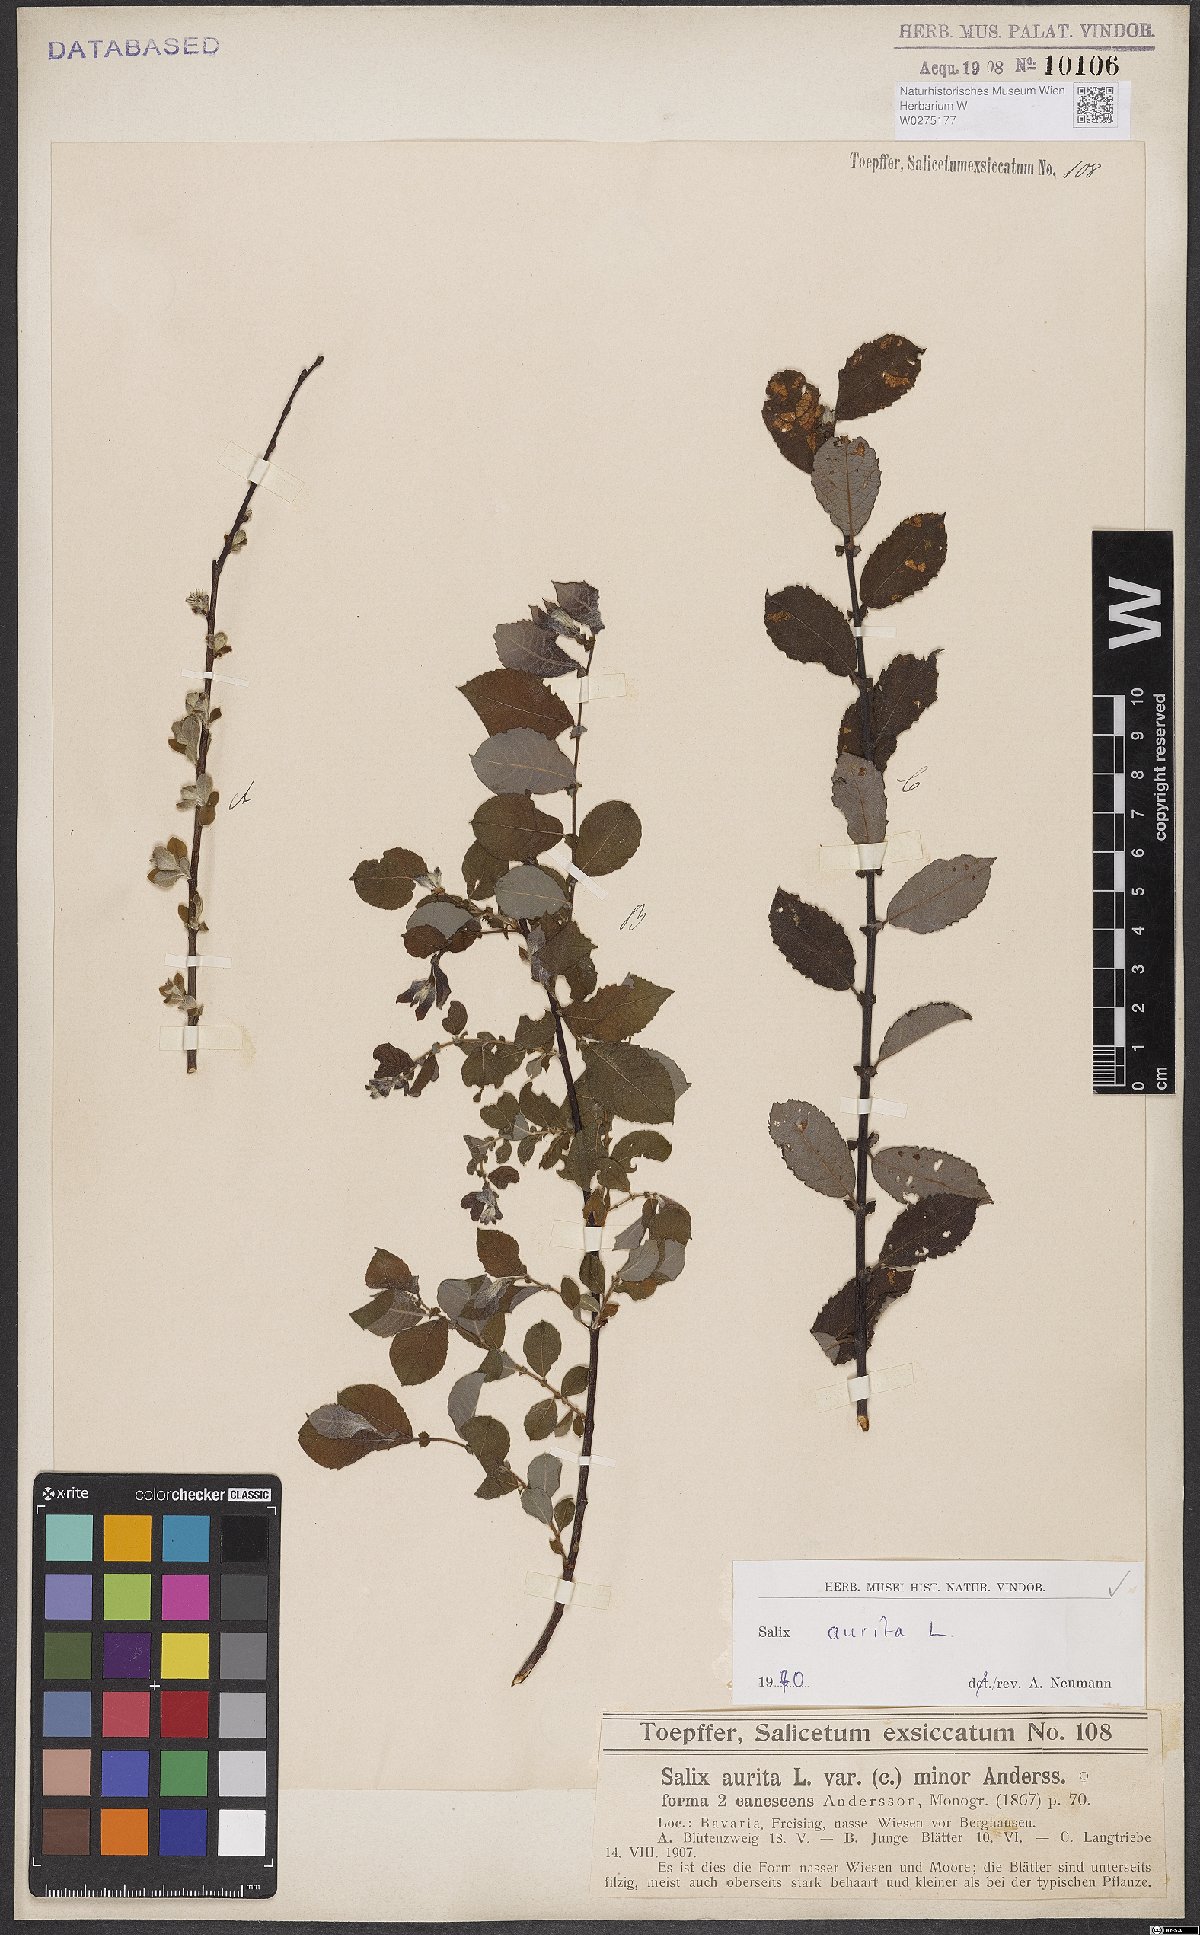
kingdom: Plantae
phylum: Tracheophyta
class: Magnoliopsida
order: Malpighiales
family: Salicaceae
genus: Salix
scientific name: Salix aurita
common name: Eared willow
